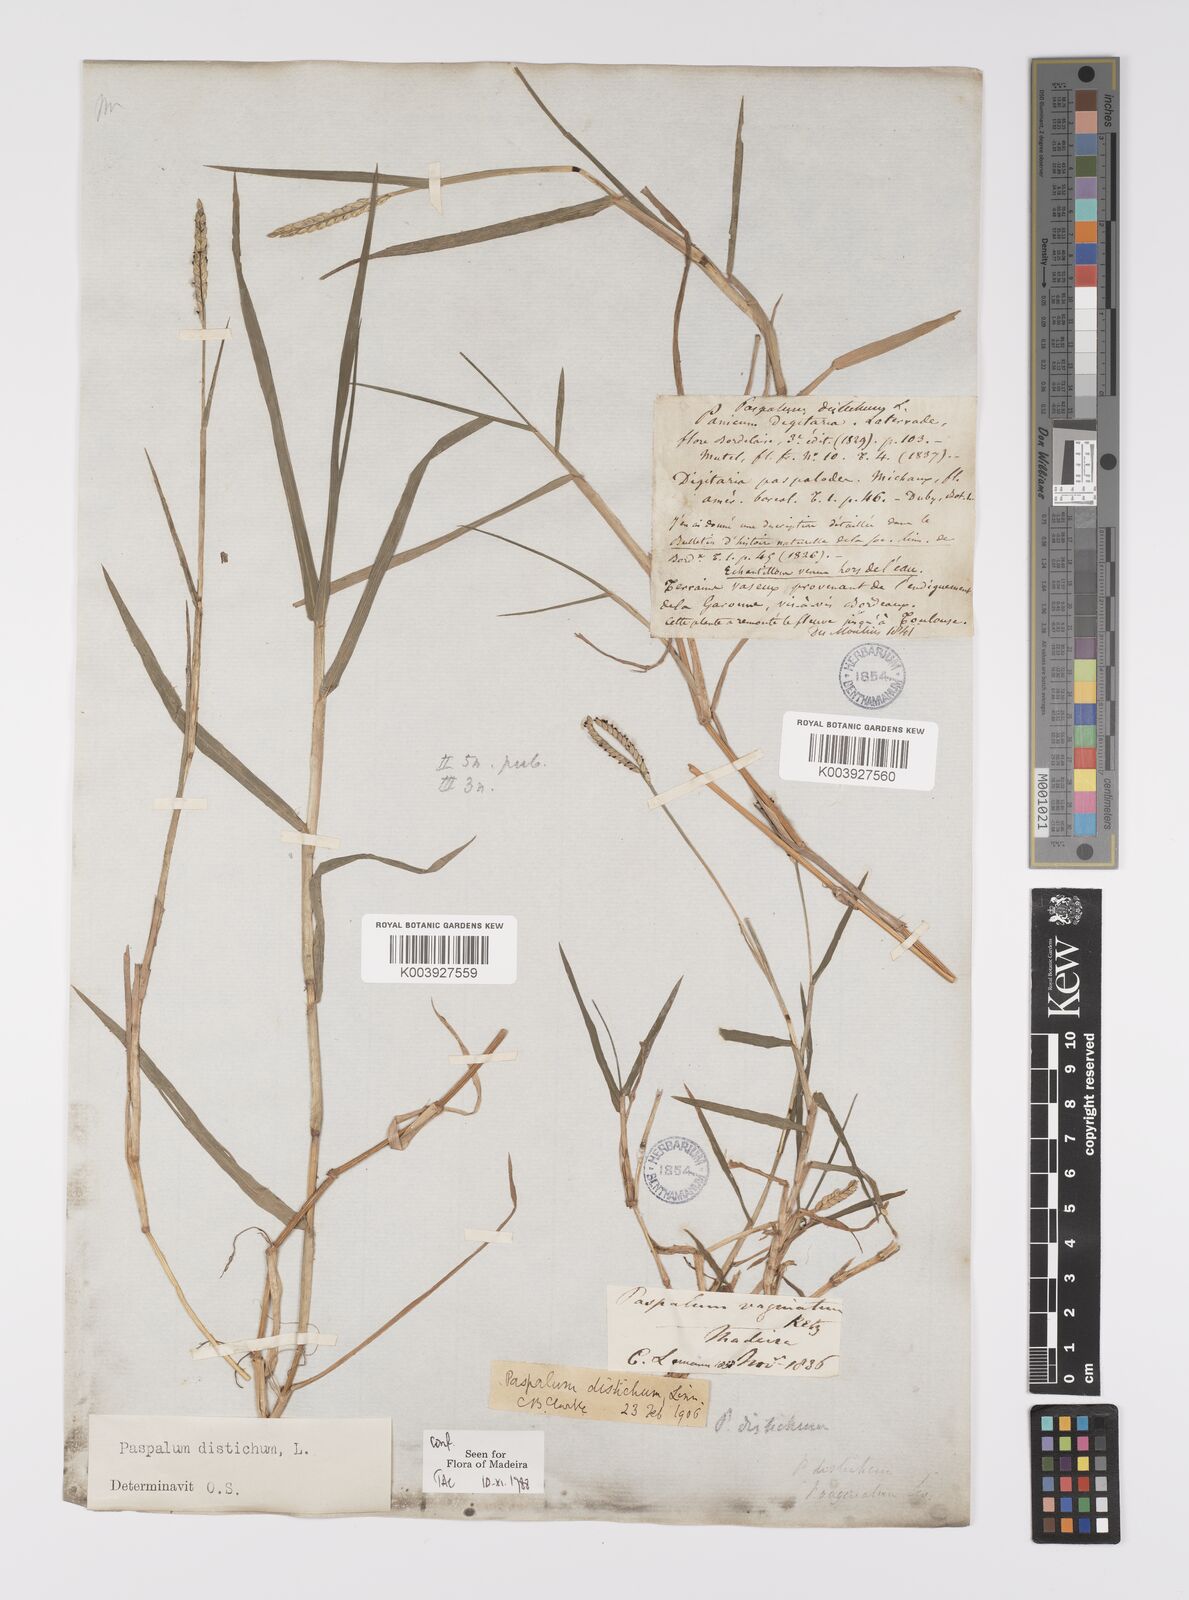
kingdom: Plantae
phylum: Tracheophyta
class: Liliopsida
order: Poales
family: Poaceae
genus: Paspalum
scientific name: Paspalum distichum
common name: Knotgrass
